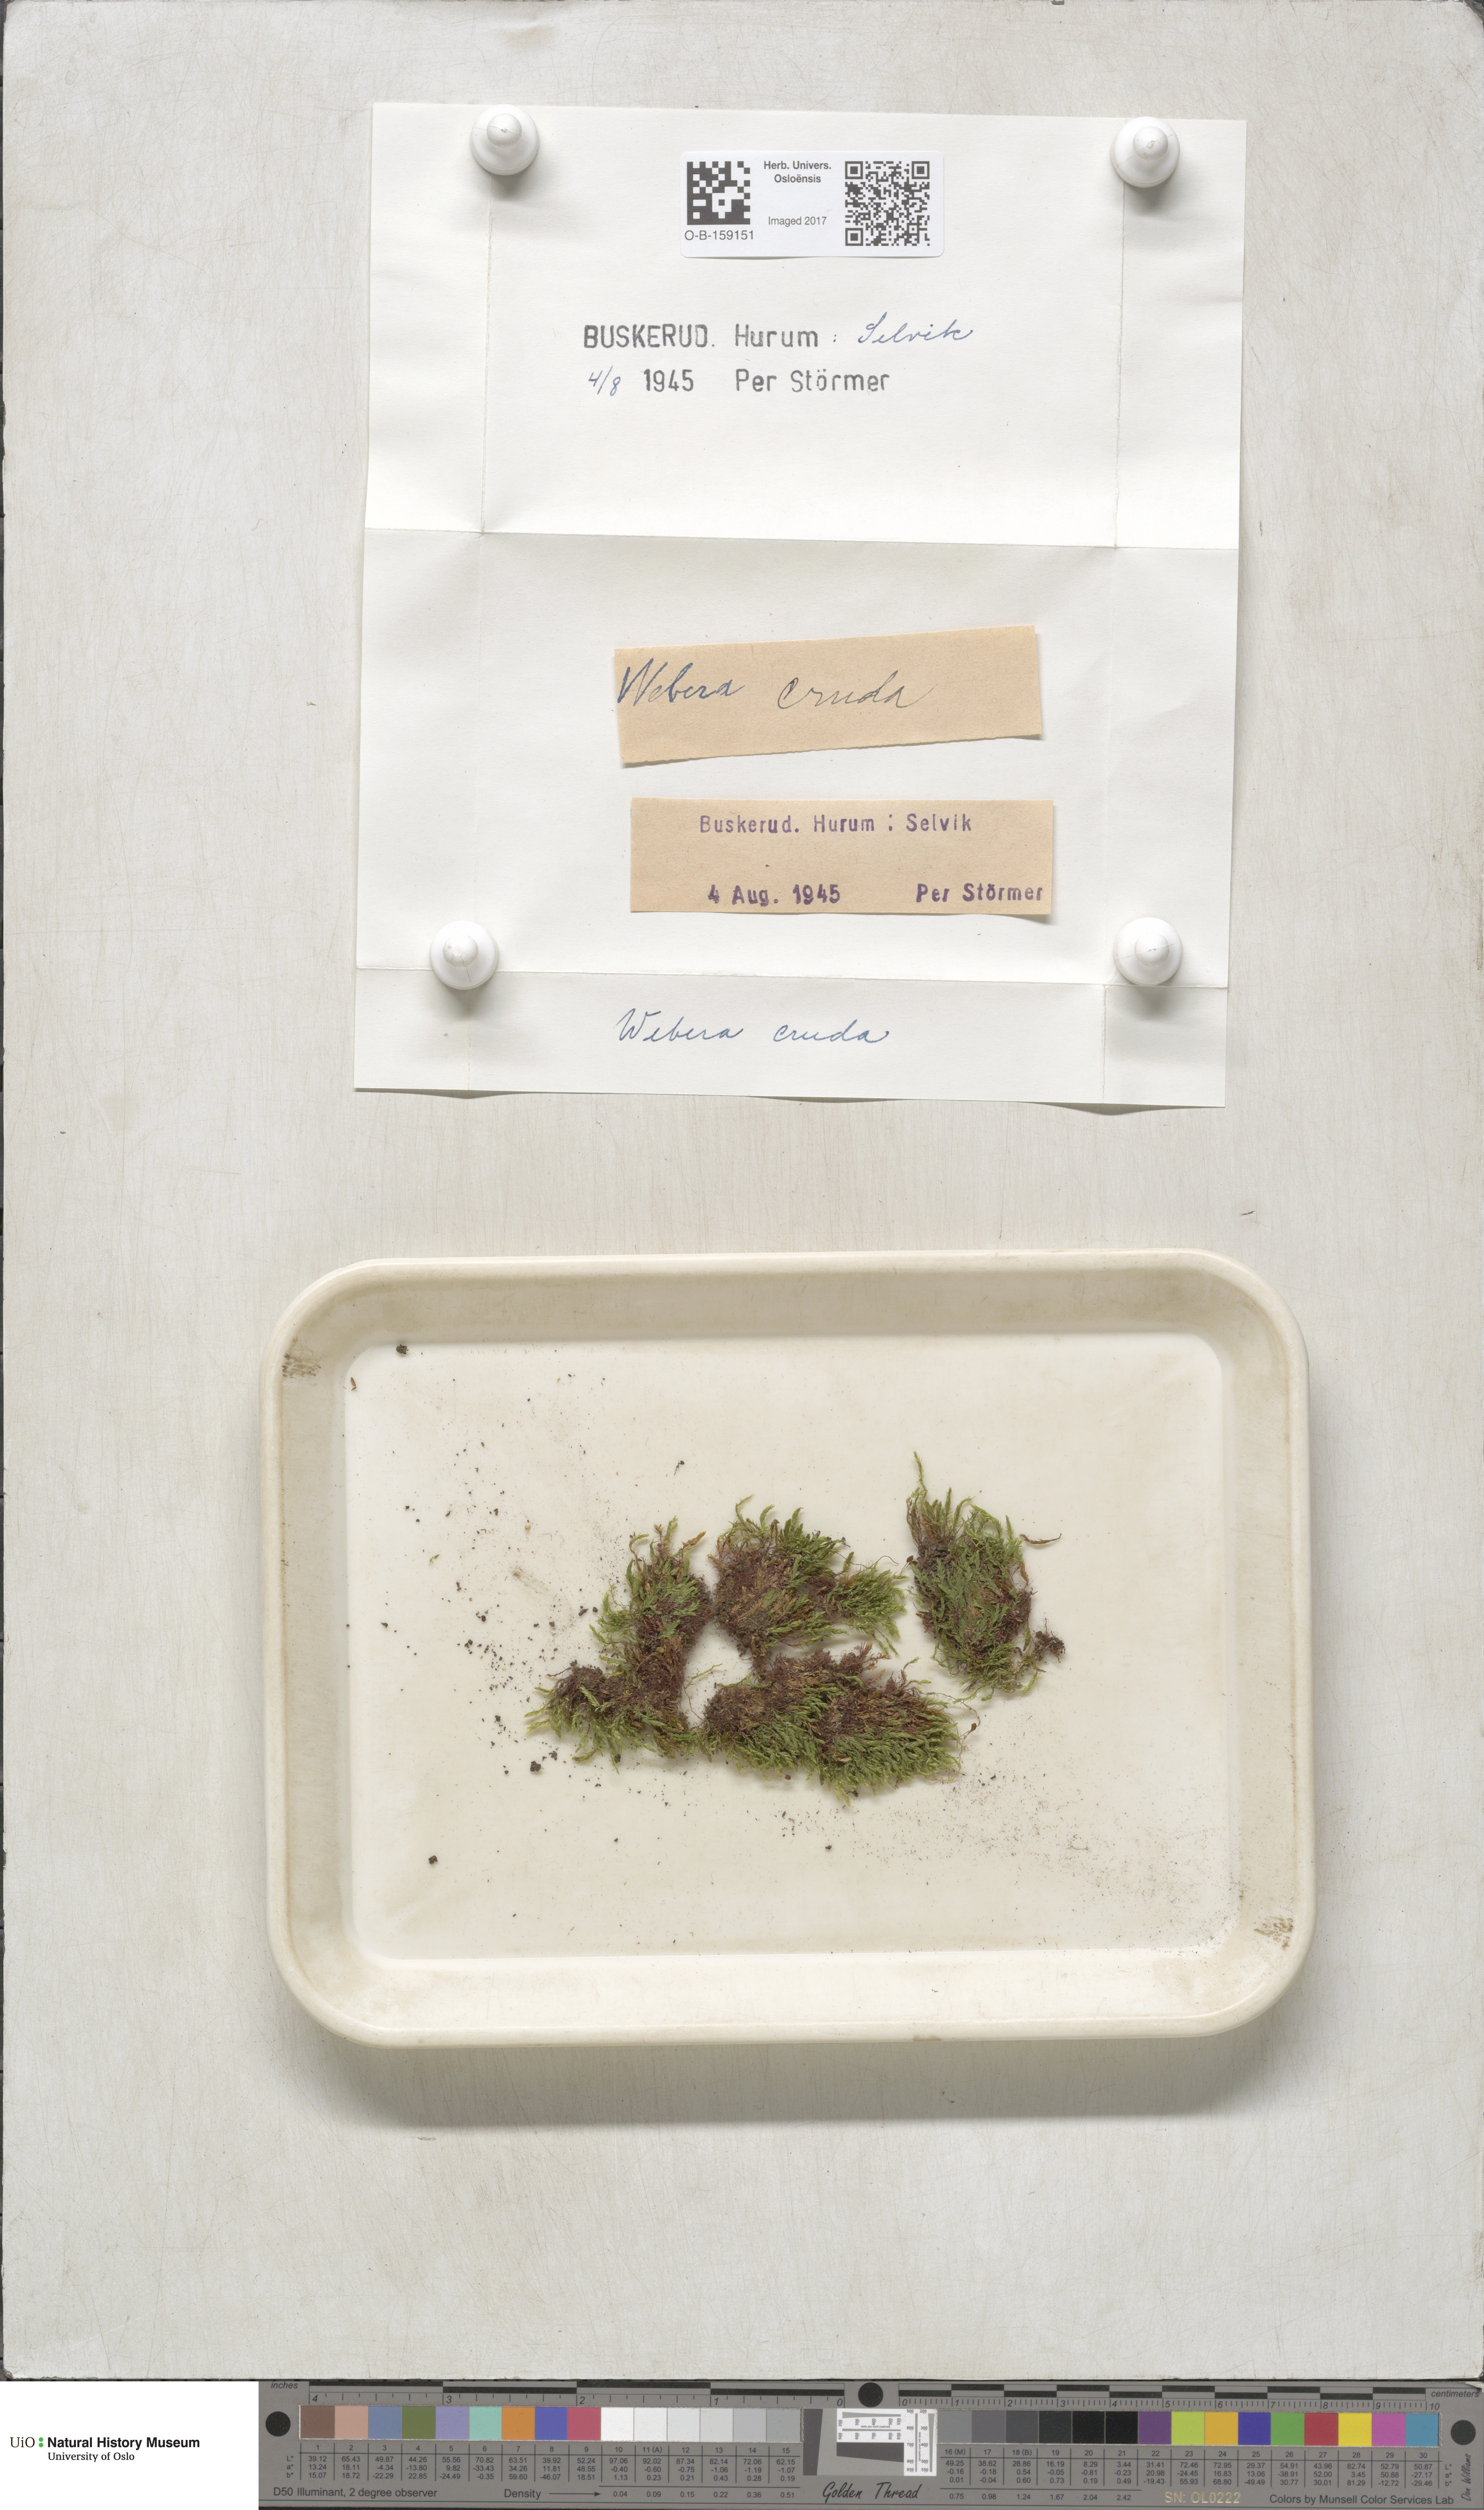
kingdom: Plantae
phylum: Bryophyta
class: Bryopsida
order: Bryales
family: Mniaceae
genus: Pohlia
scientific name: Pohlia cruda
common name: Opal nodding moss
